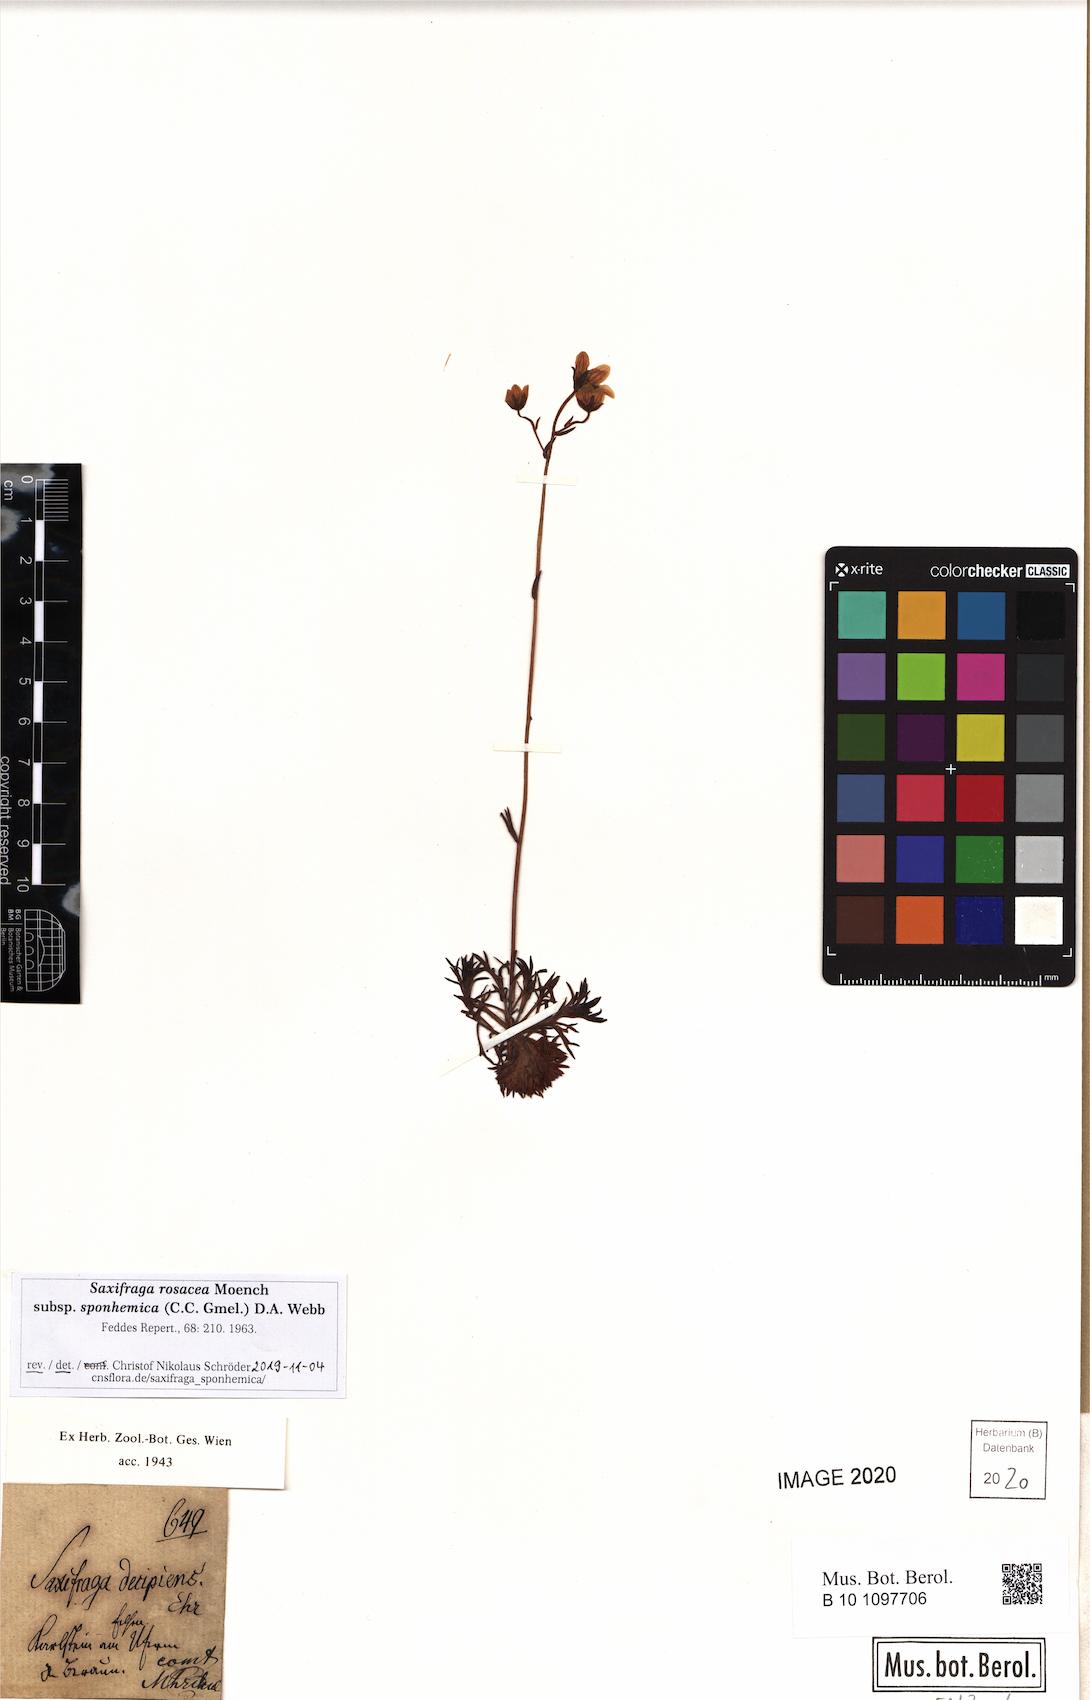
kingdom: Plantae
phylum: Tracheophyta
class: Magnoliopsida
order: Saxifragales
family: Saxifragaceae
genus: Saxifraga
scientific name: Saxifraga rosacea
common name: Irish saxifrage
